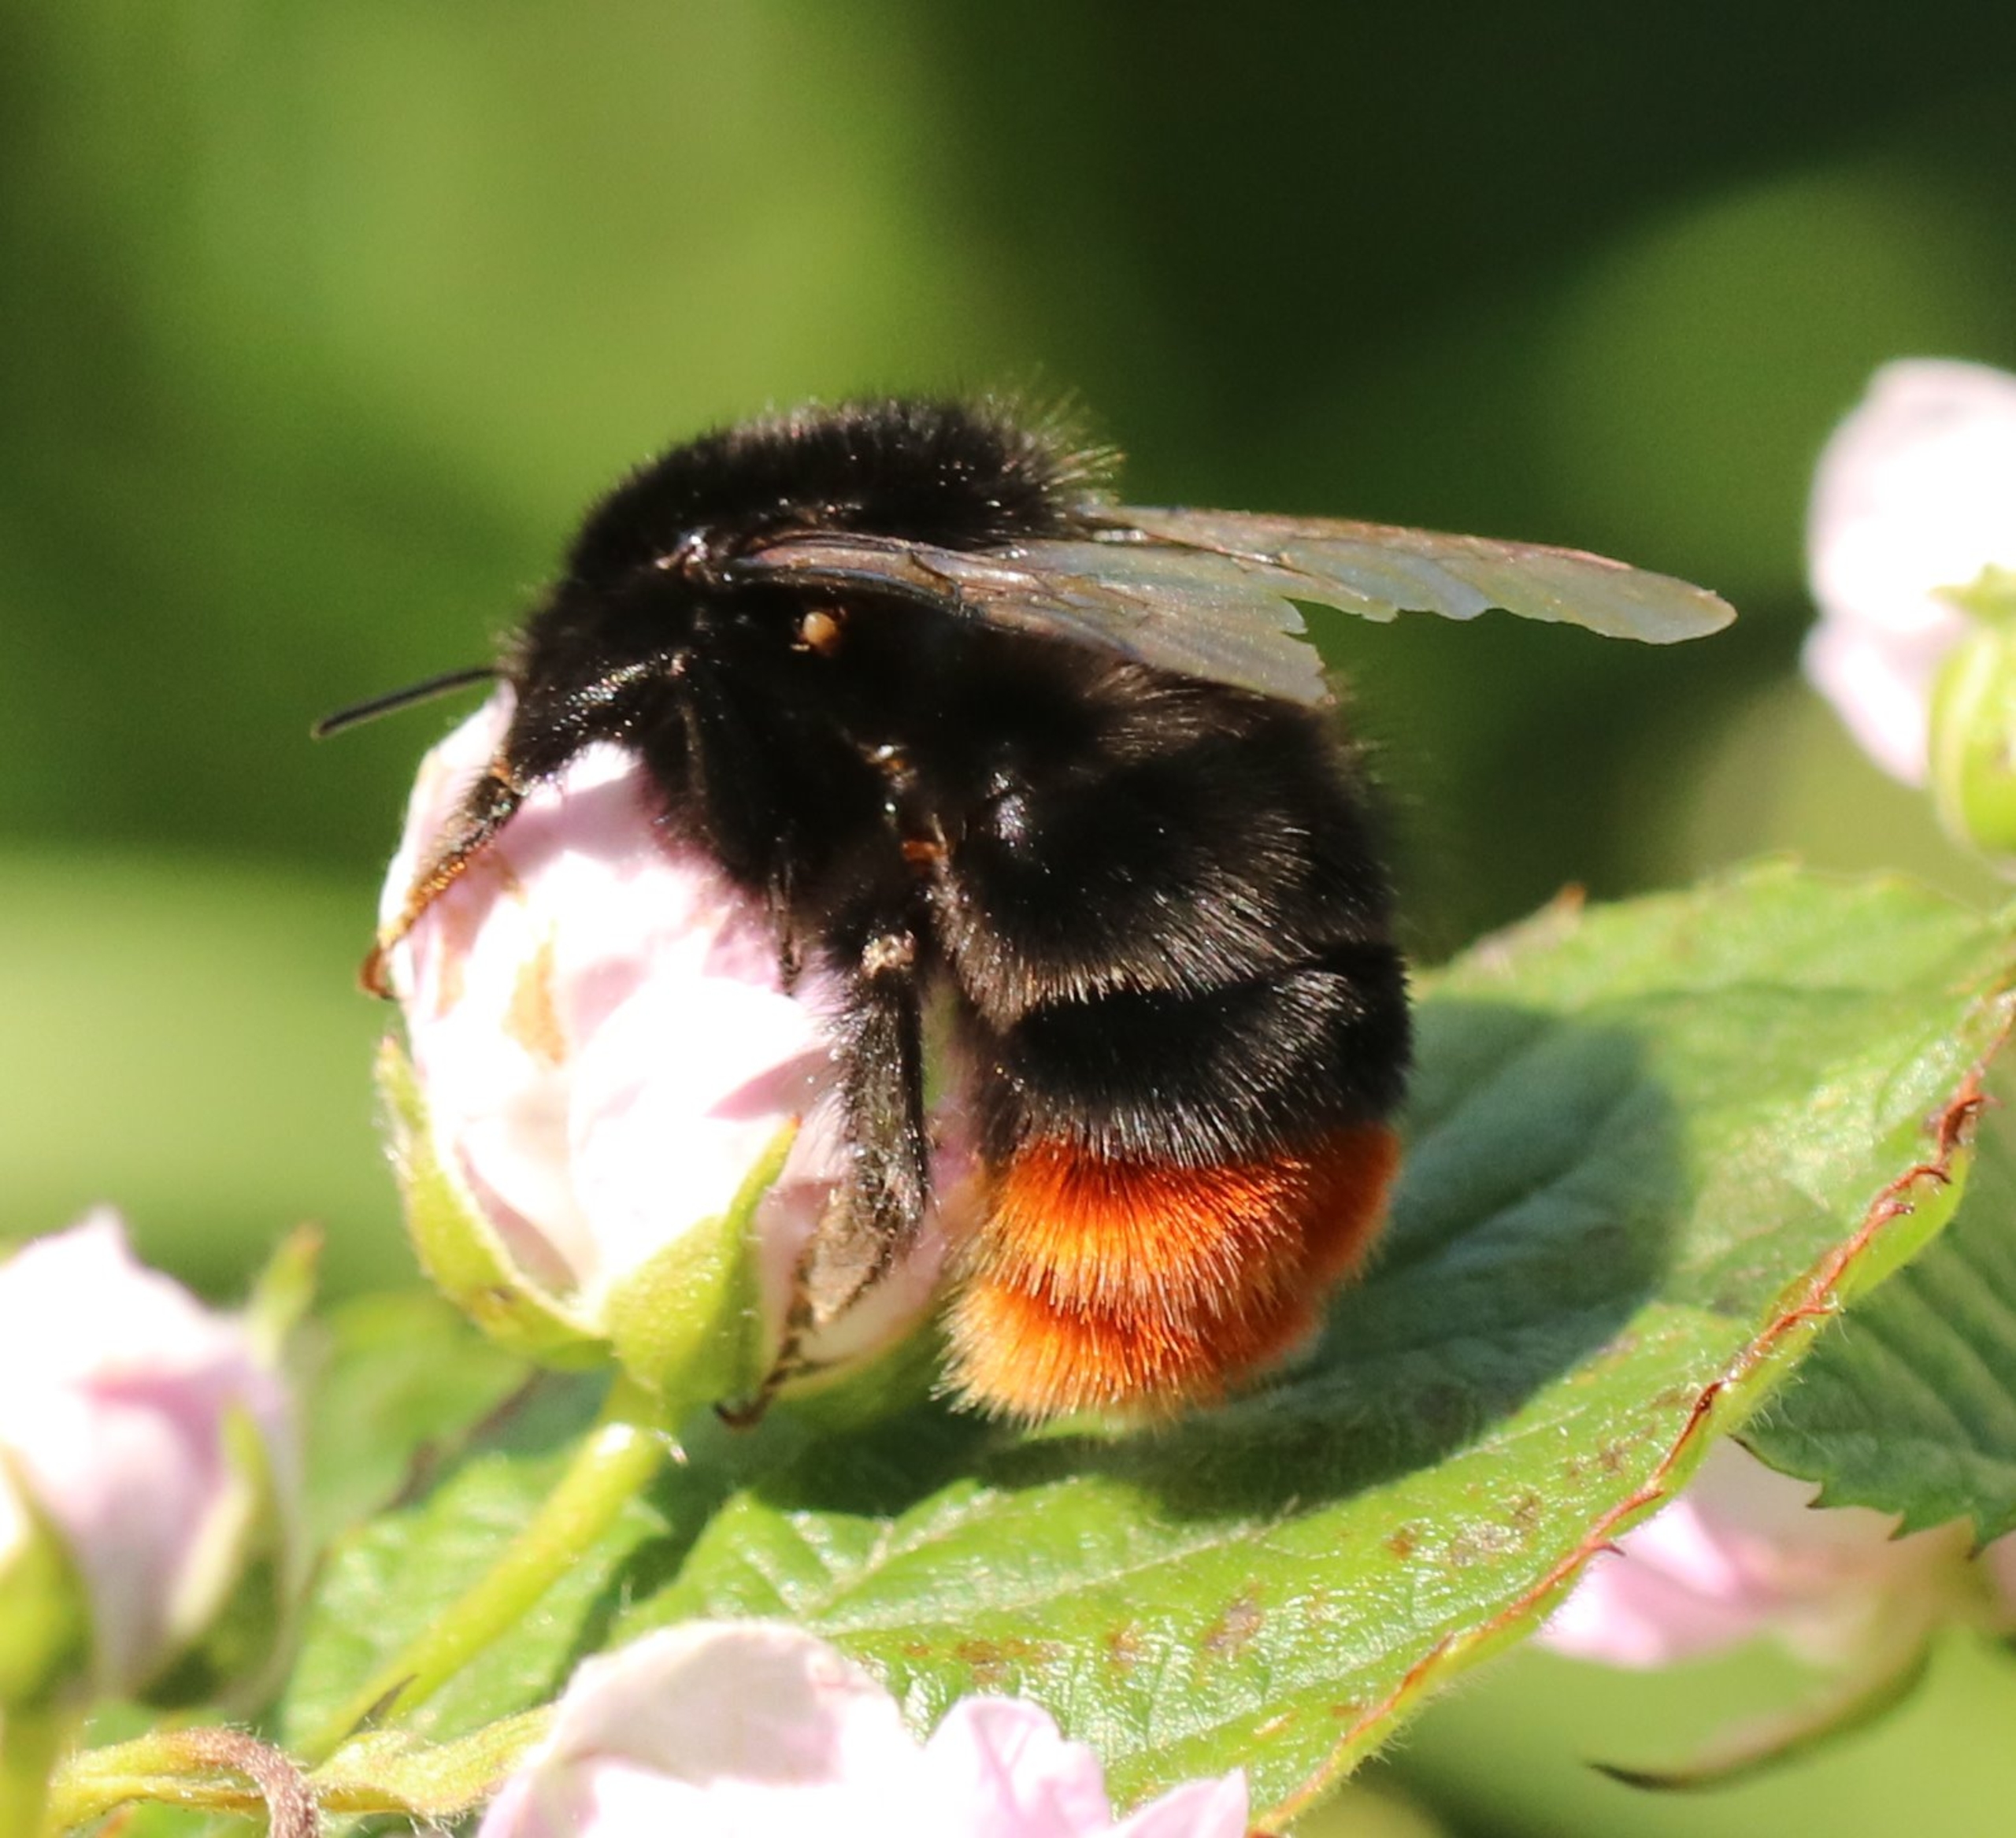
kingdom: Animalia
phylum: Arthropoda
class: Insecta
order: Hymenoptera
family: Apidae
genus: Bombus
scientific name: Bombus lapidarius
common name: Stenhumle
